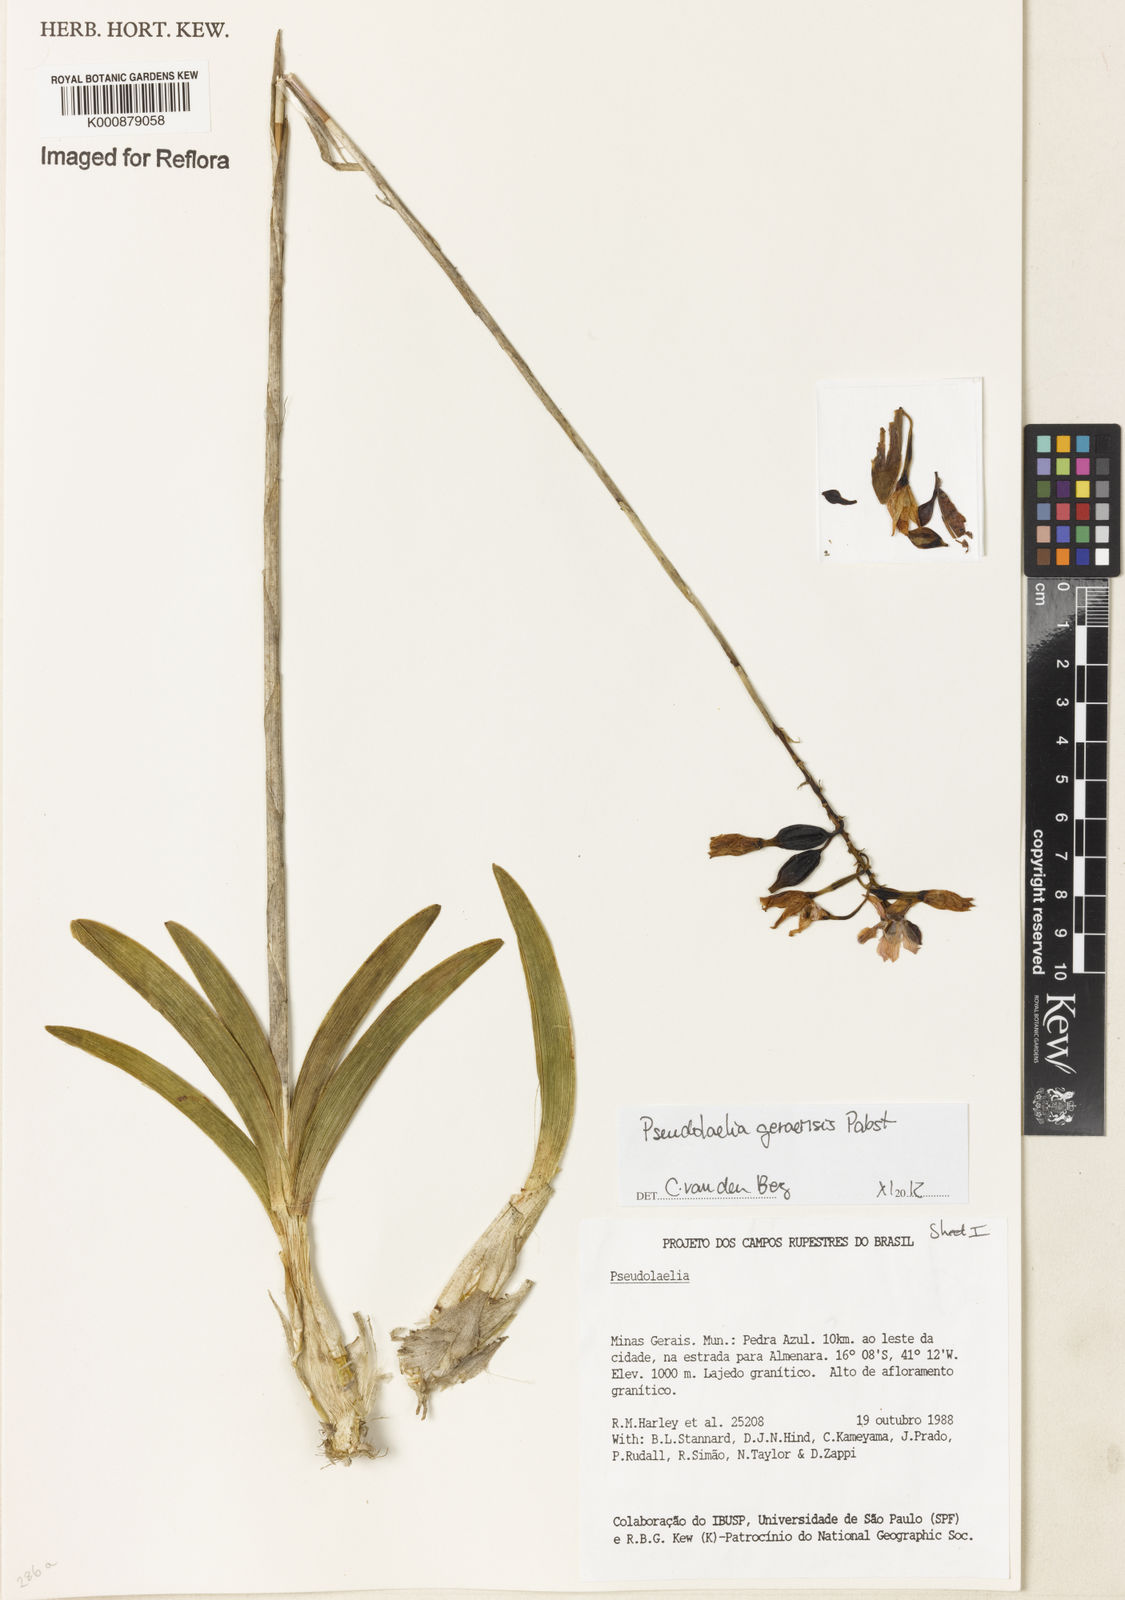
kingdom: Plantae
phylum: Tracheophyta
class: Liliopsida
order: Asparagales
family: Orchidaceae
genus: Pseudolaelia
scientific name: Pseudolaelia geraensis
